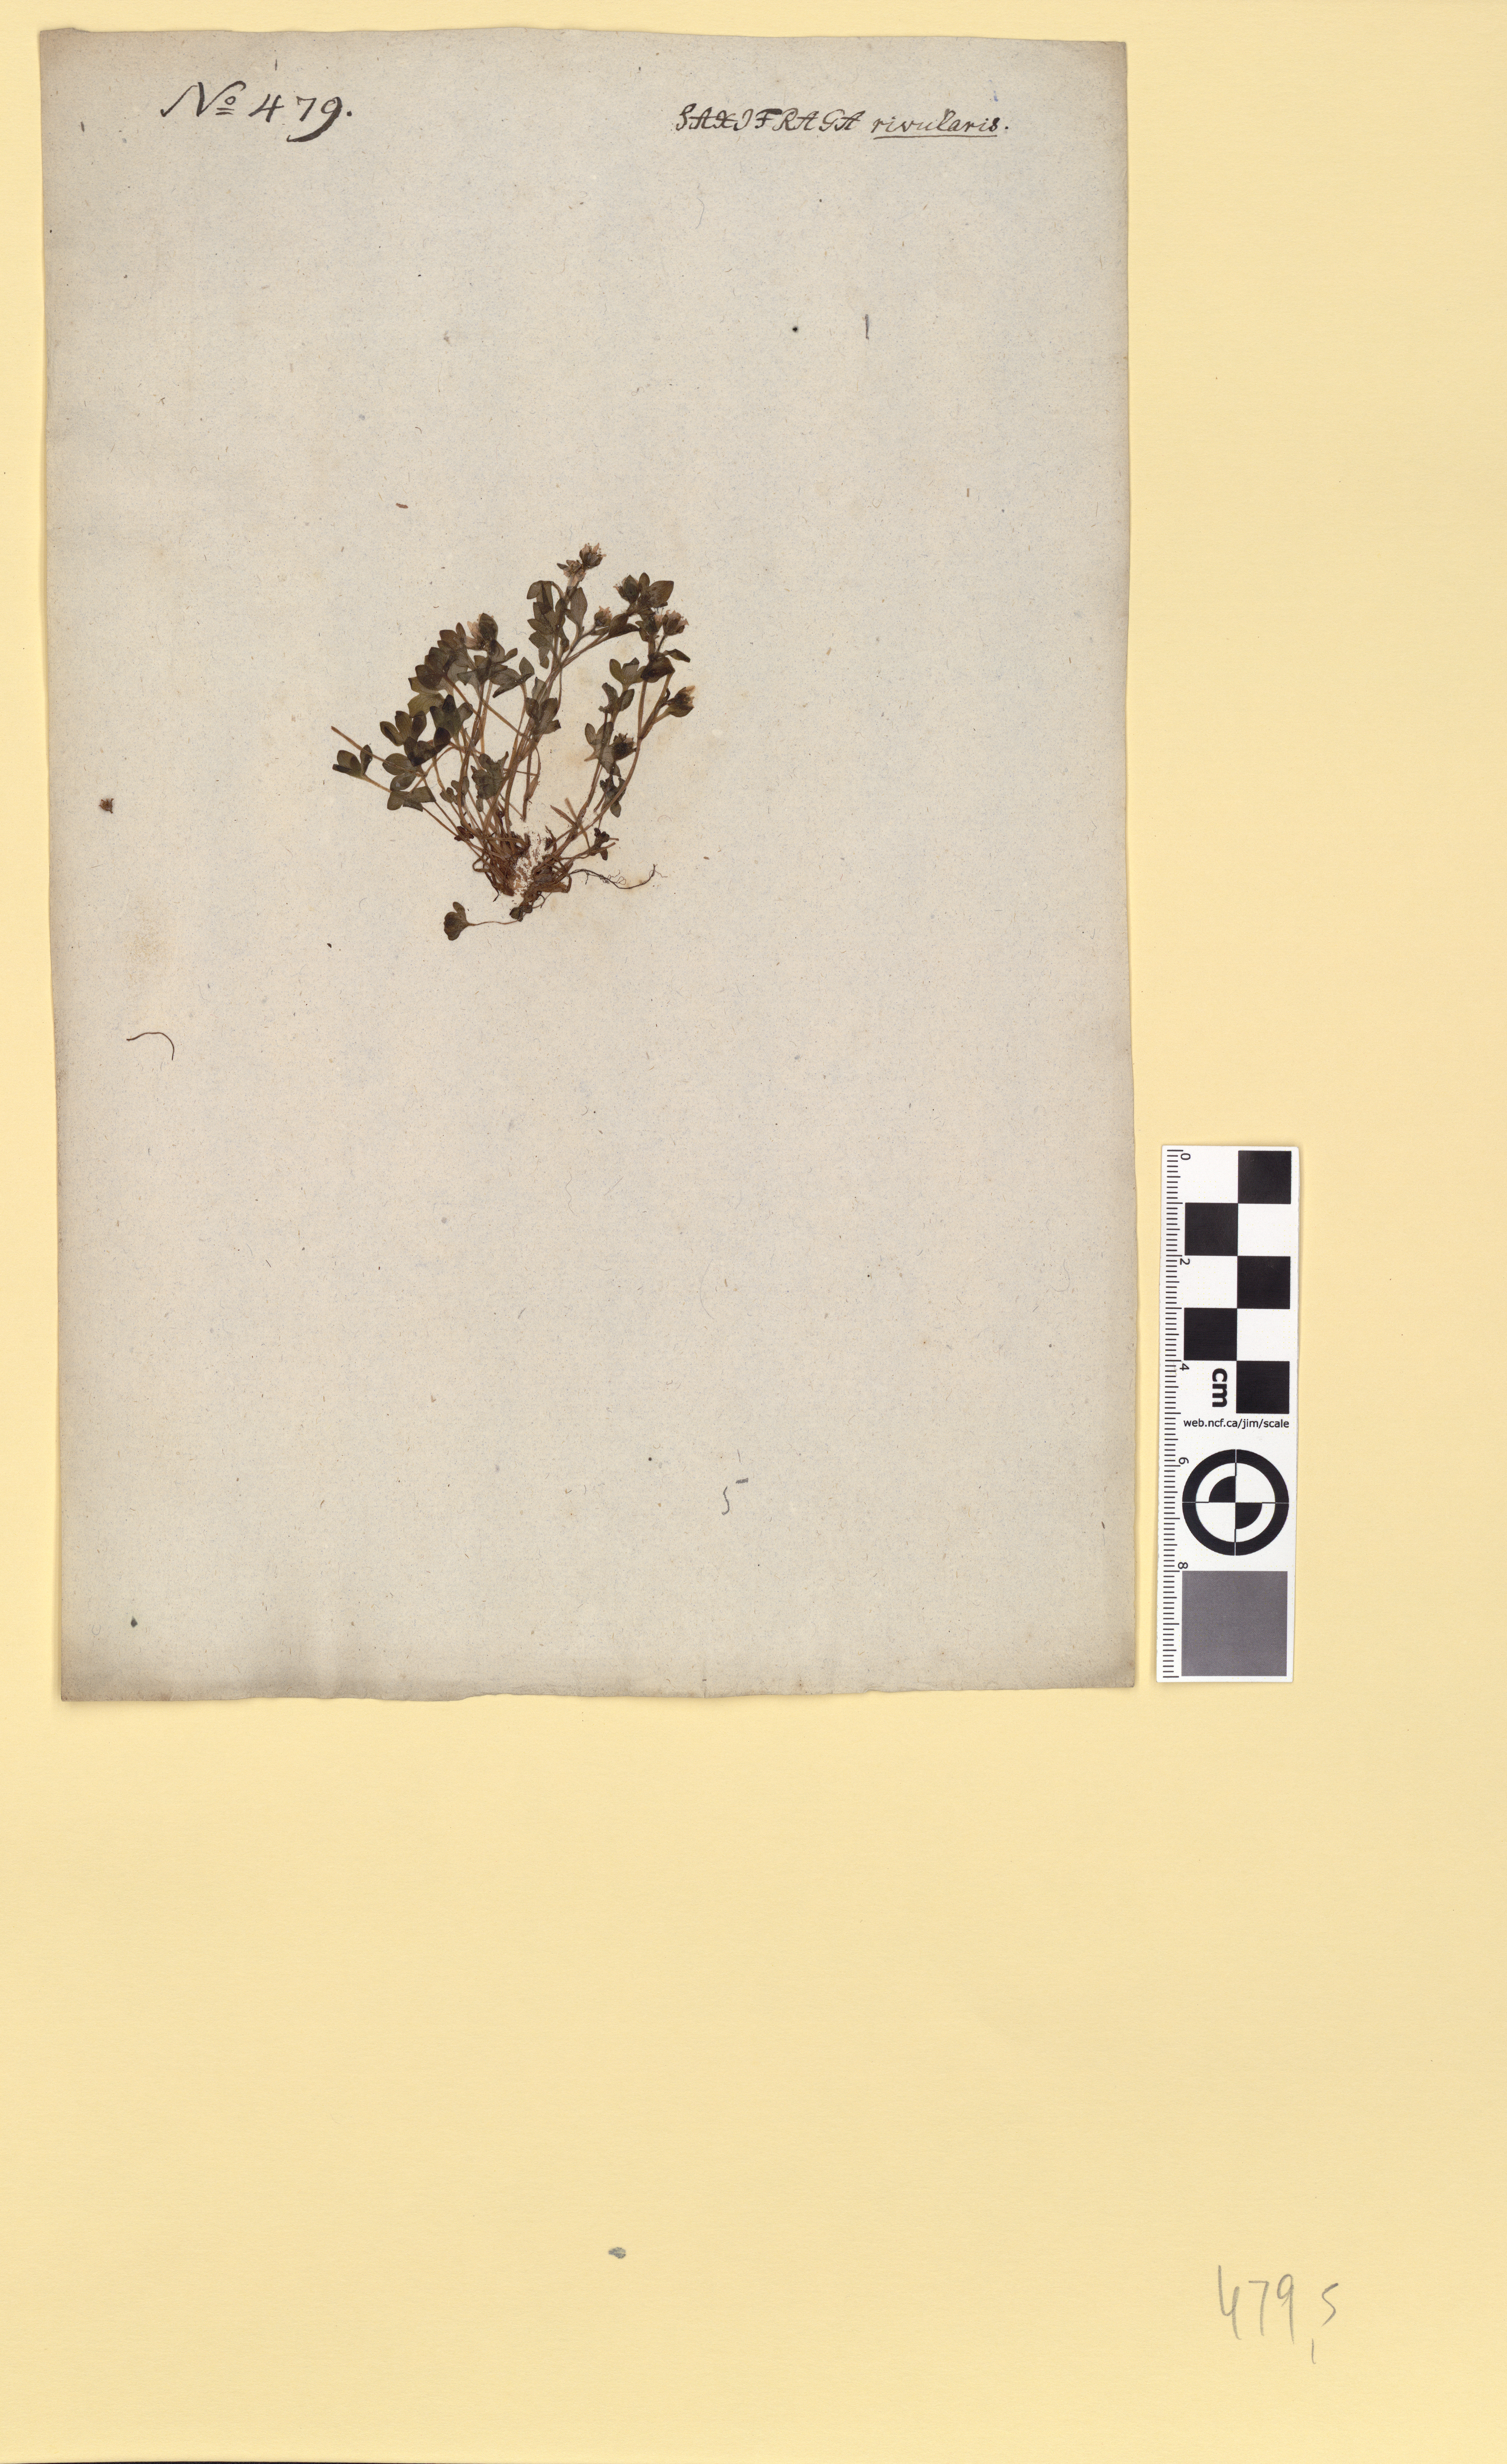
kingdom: Plantae
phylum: Tracheophyta
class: Magnoliopsida
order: Saxifragales
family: Saxifragaceae
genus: Saxifraga
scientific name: Saxifraga rivularis
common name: Highland saxifrage
